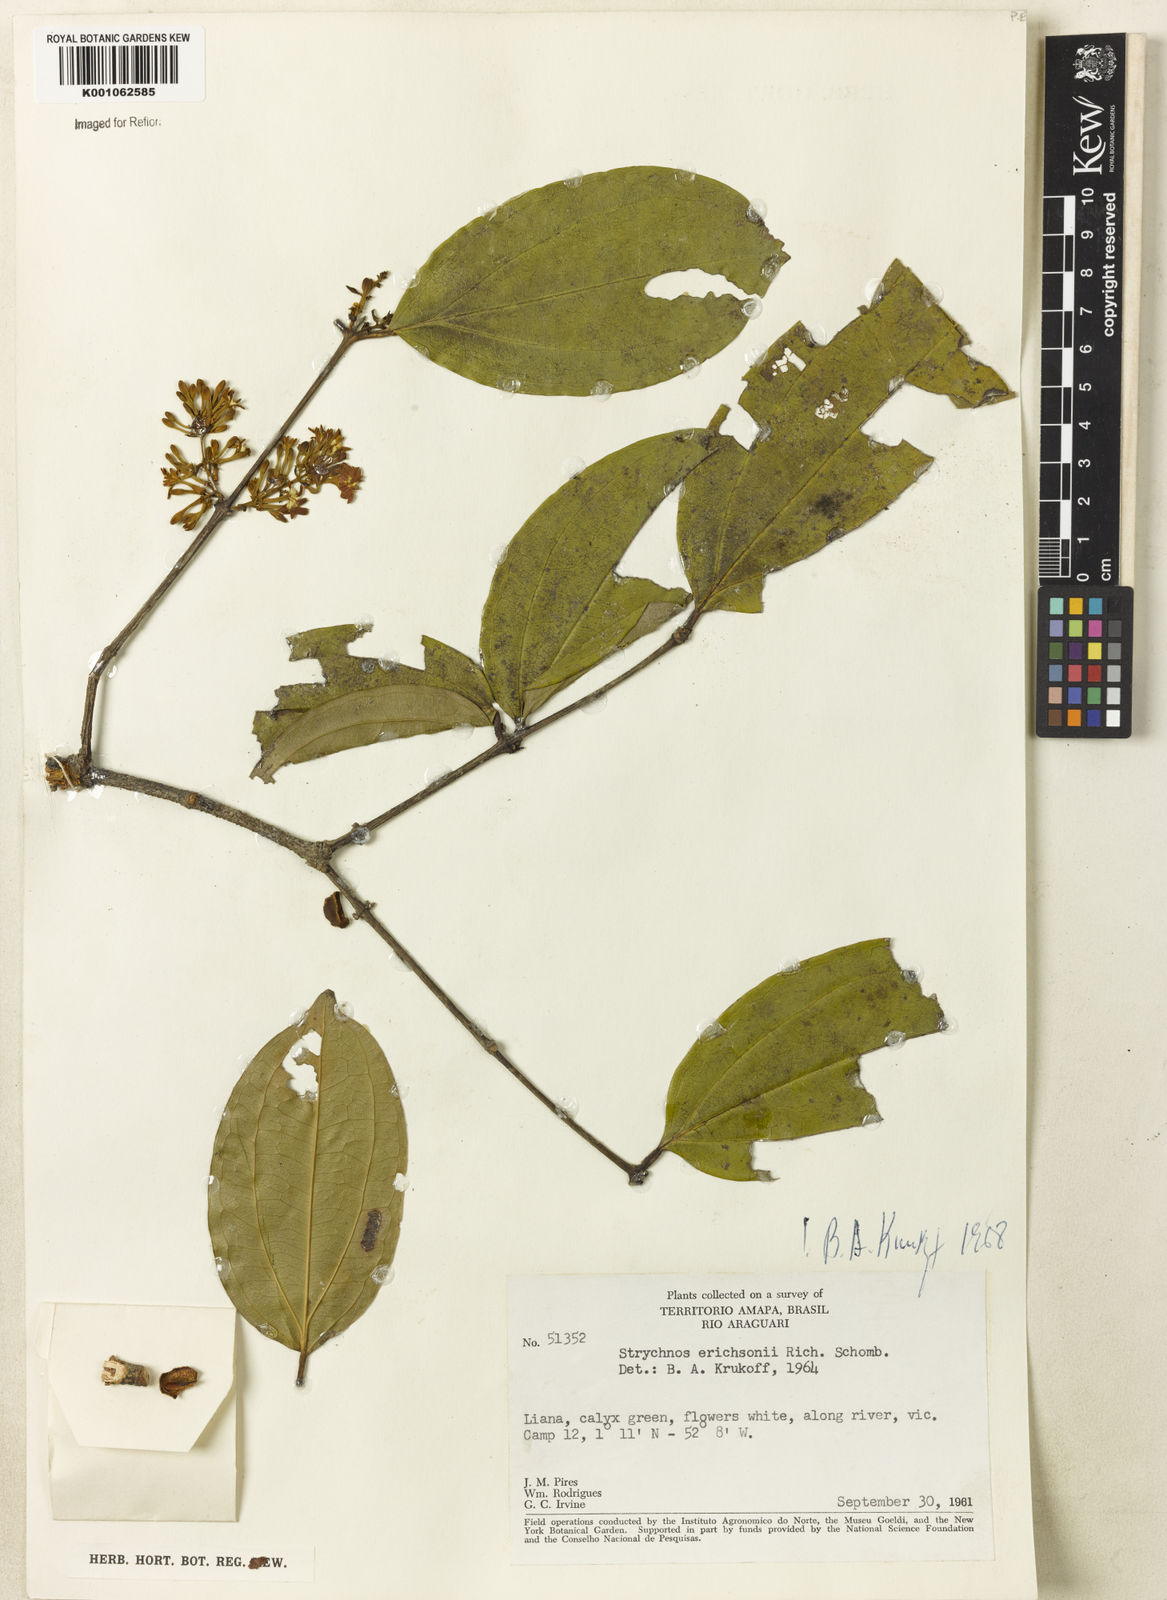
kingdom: Plantae
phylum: Tracheophyta
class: Magnoliopsida
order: Gentianales
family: Loganiaceae
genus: Strychnos
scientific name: Strychnos erichsonii
